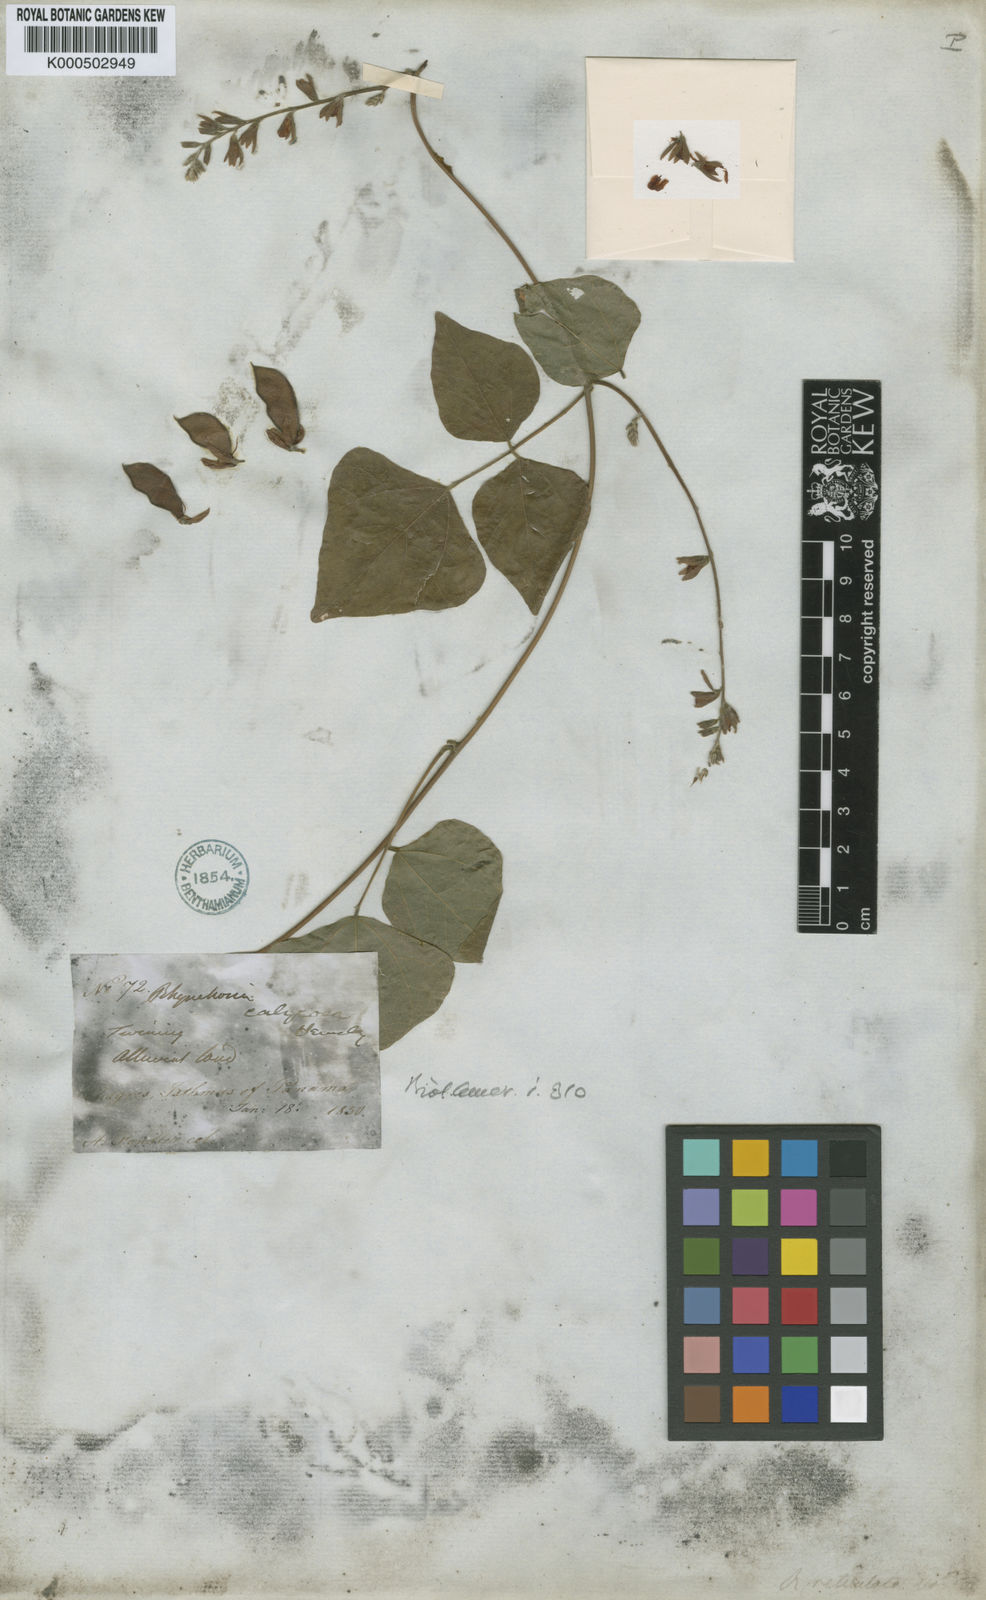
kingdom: Plantae
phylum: Tracheophyta
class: Magnoliopsida
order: Fabales
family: Fabaceae
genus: Rhynchosia
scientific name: Rhynchosia calycosa
